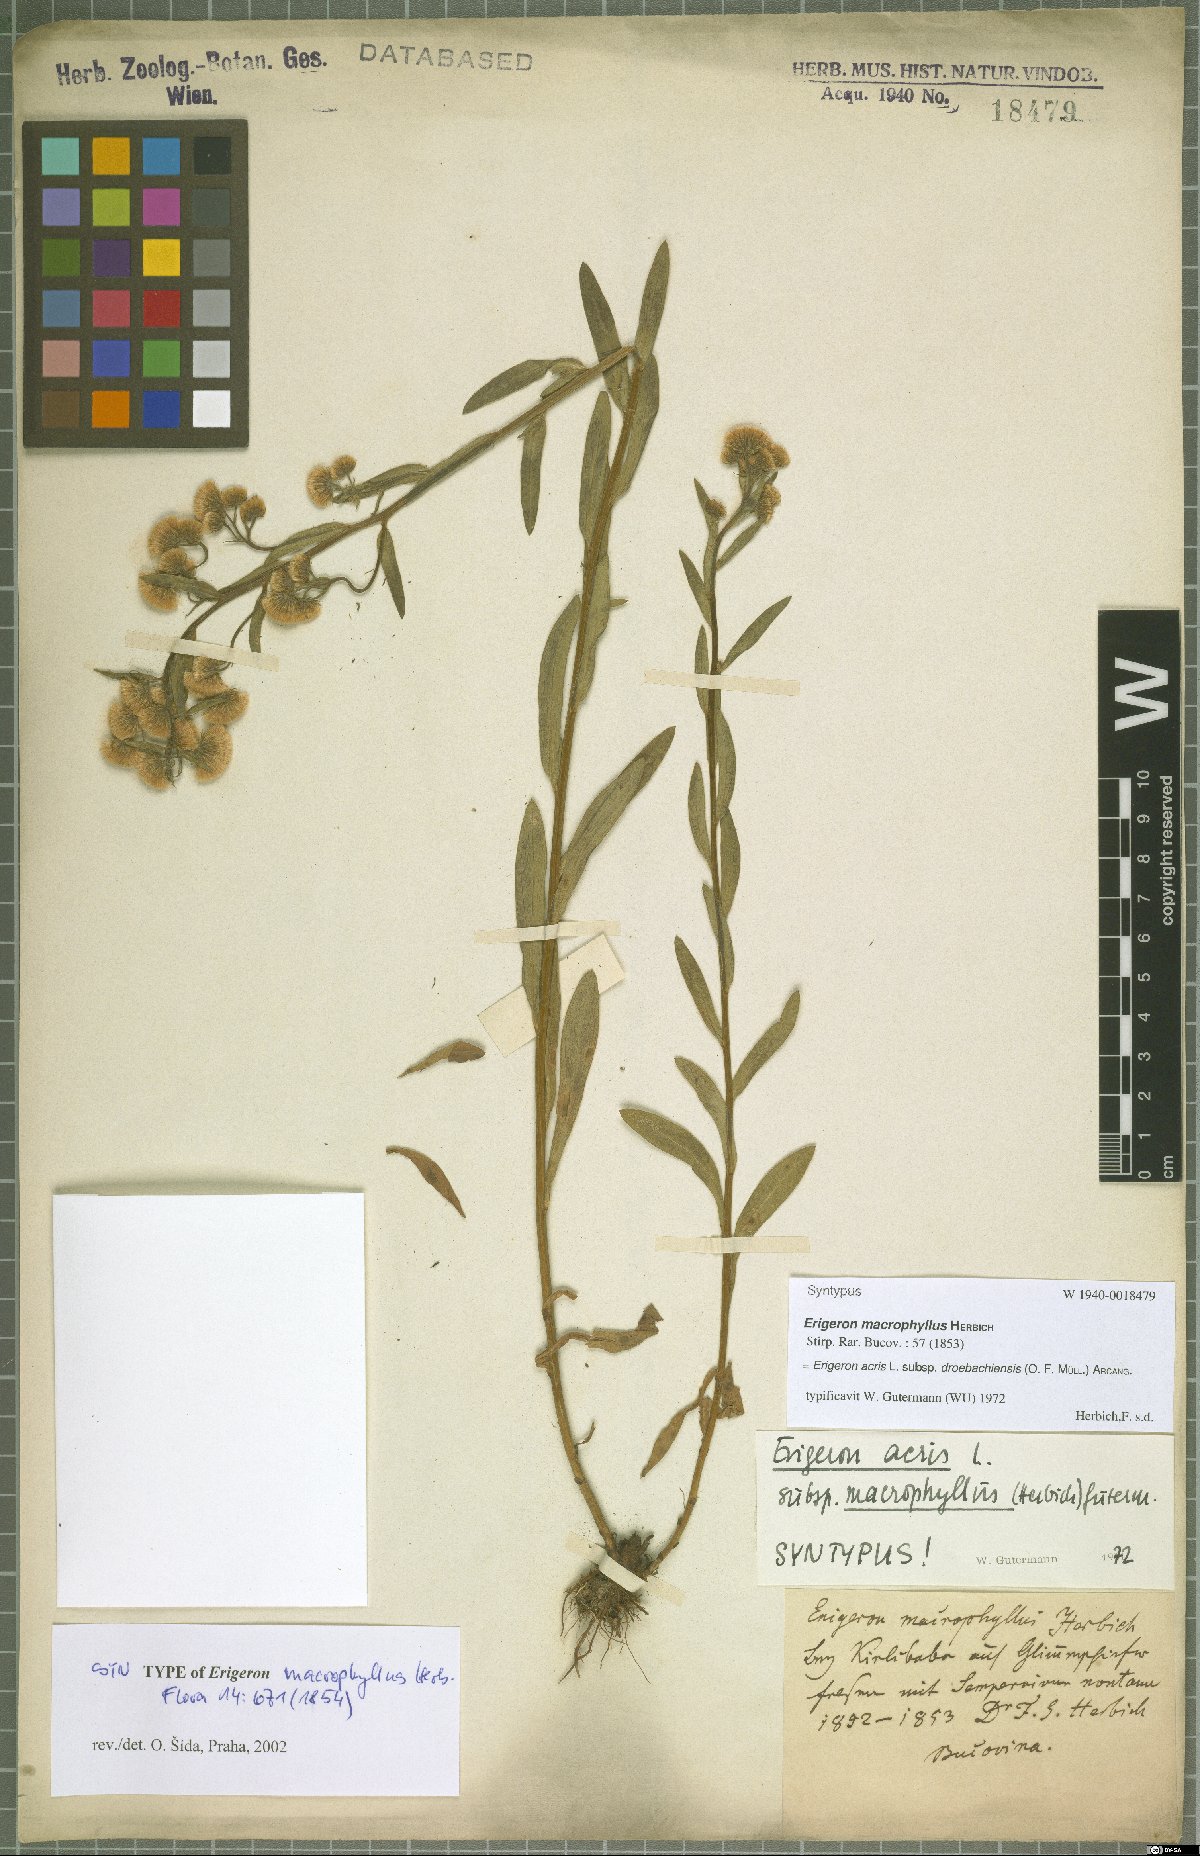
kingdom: Plantae
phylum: Tracheophyta
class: Magnoliopsida
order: Asterales
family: Asteraceae
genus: Erigeron
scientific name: Erigeron droebachiensis
